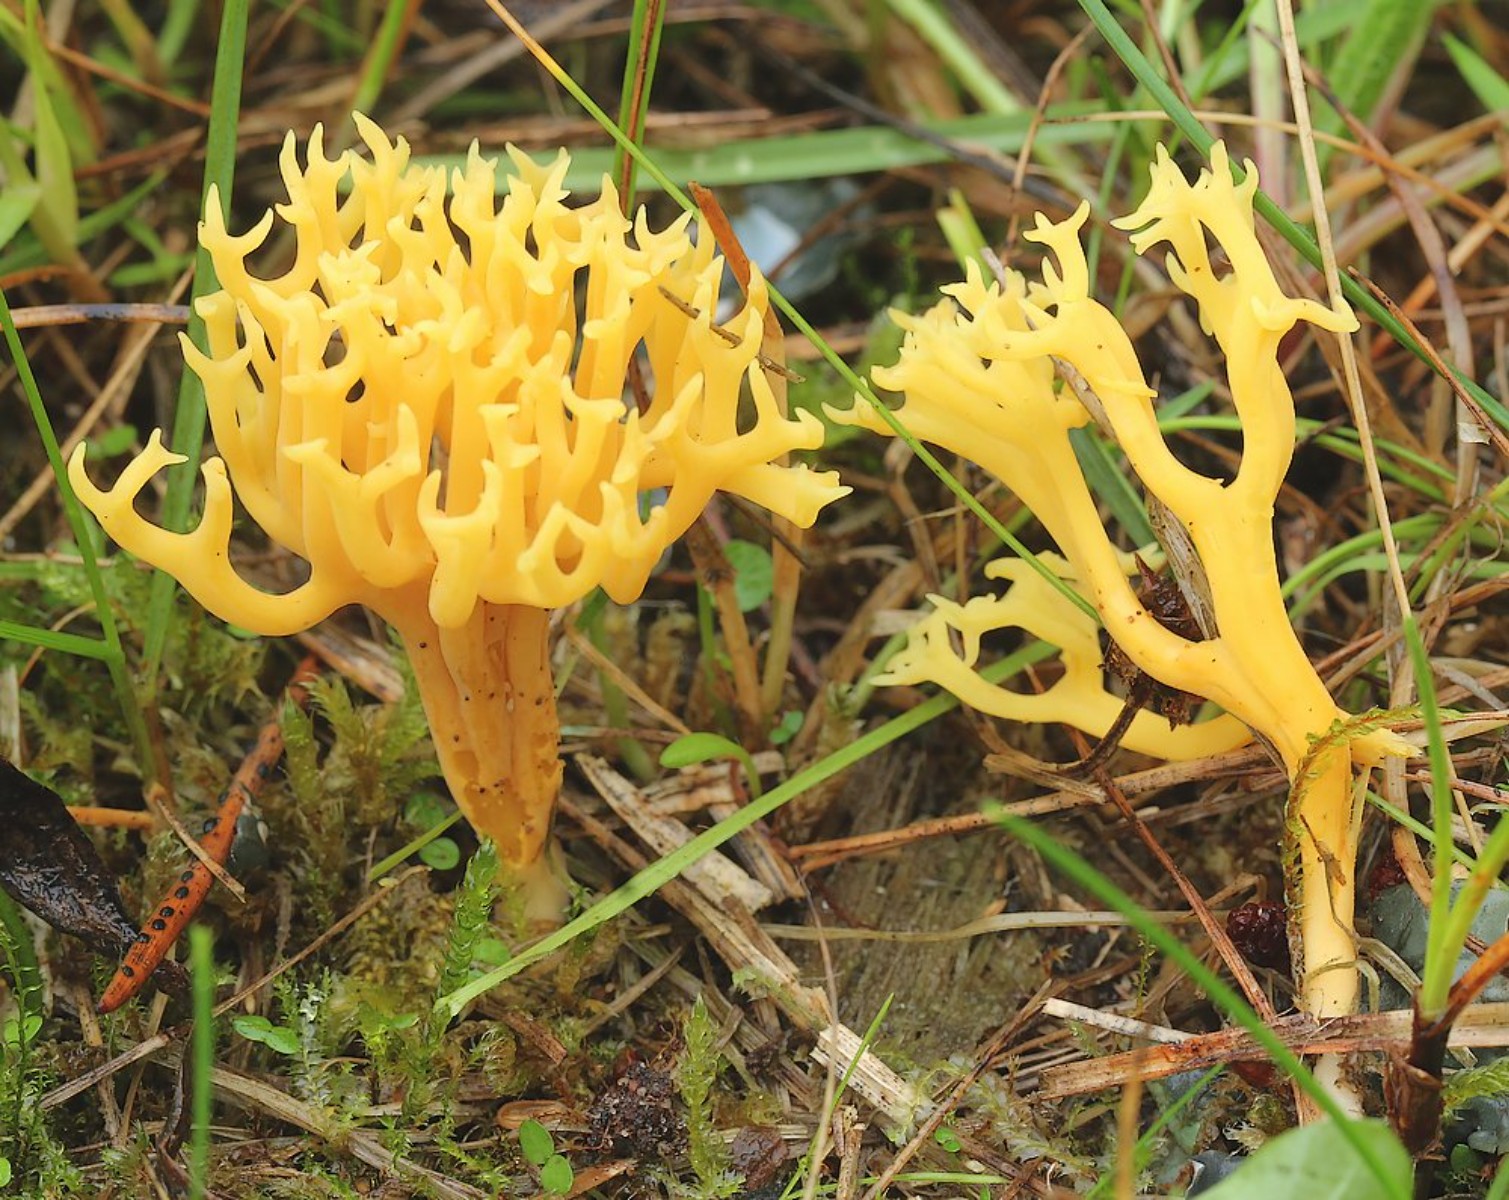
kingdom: Fungi
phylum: Basidiomycota
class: Agaricomycetes
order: Agaricales
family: Clavariaceae
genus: Clavulinopsis
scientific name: Clavulinopsis corniculata
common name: eng-køllesvamp
